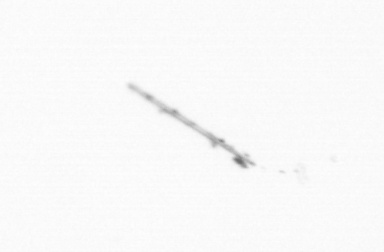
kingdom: Chromista
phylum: Ochrophyta
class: Bacillariophyceae
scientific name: Bacillariophyceae
